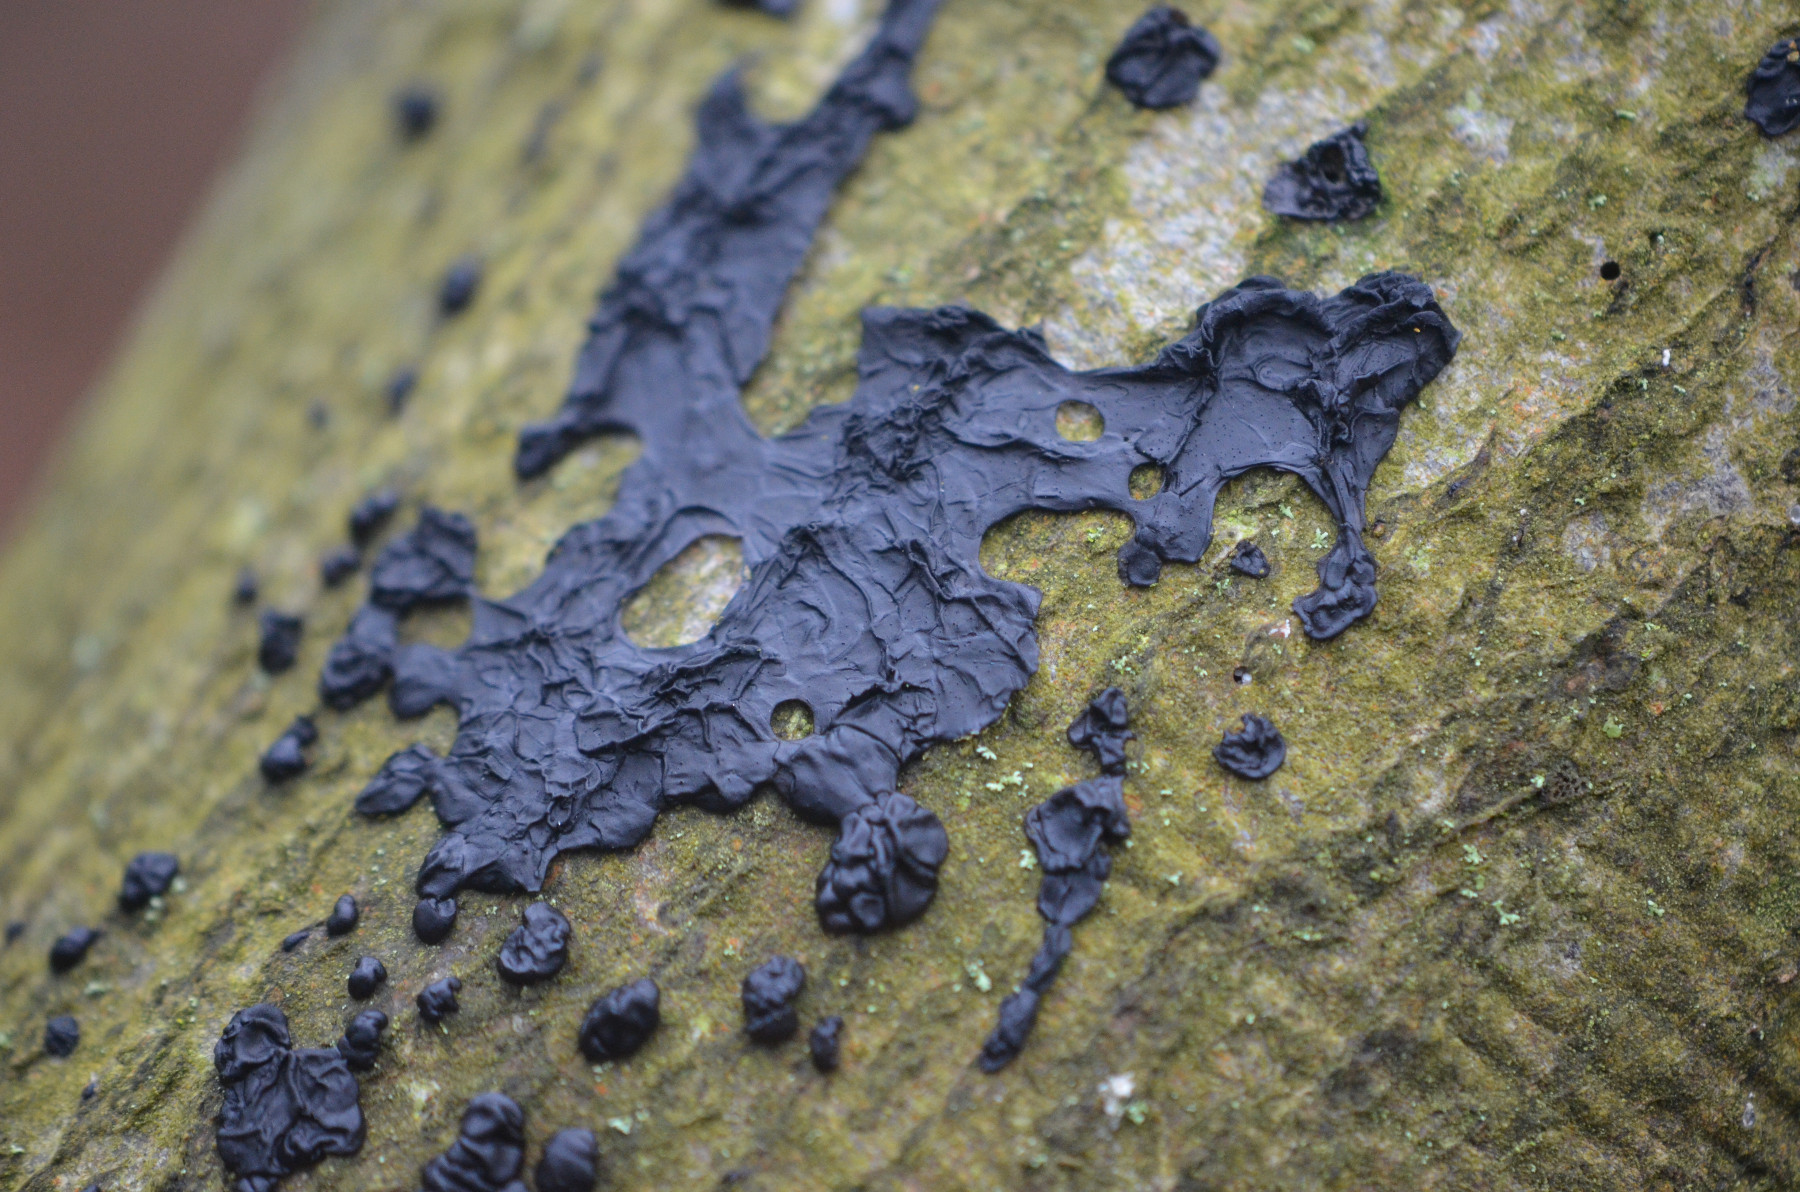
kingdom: Fungi
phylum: Basidiomycota
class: Agaricomycetes
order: Auriculariales
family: Auriculariaceae
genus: Exidia
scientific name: Exidia nigricans
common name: almindelig bævretop
